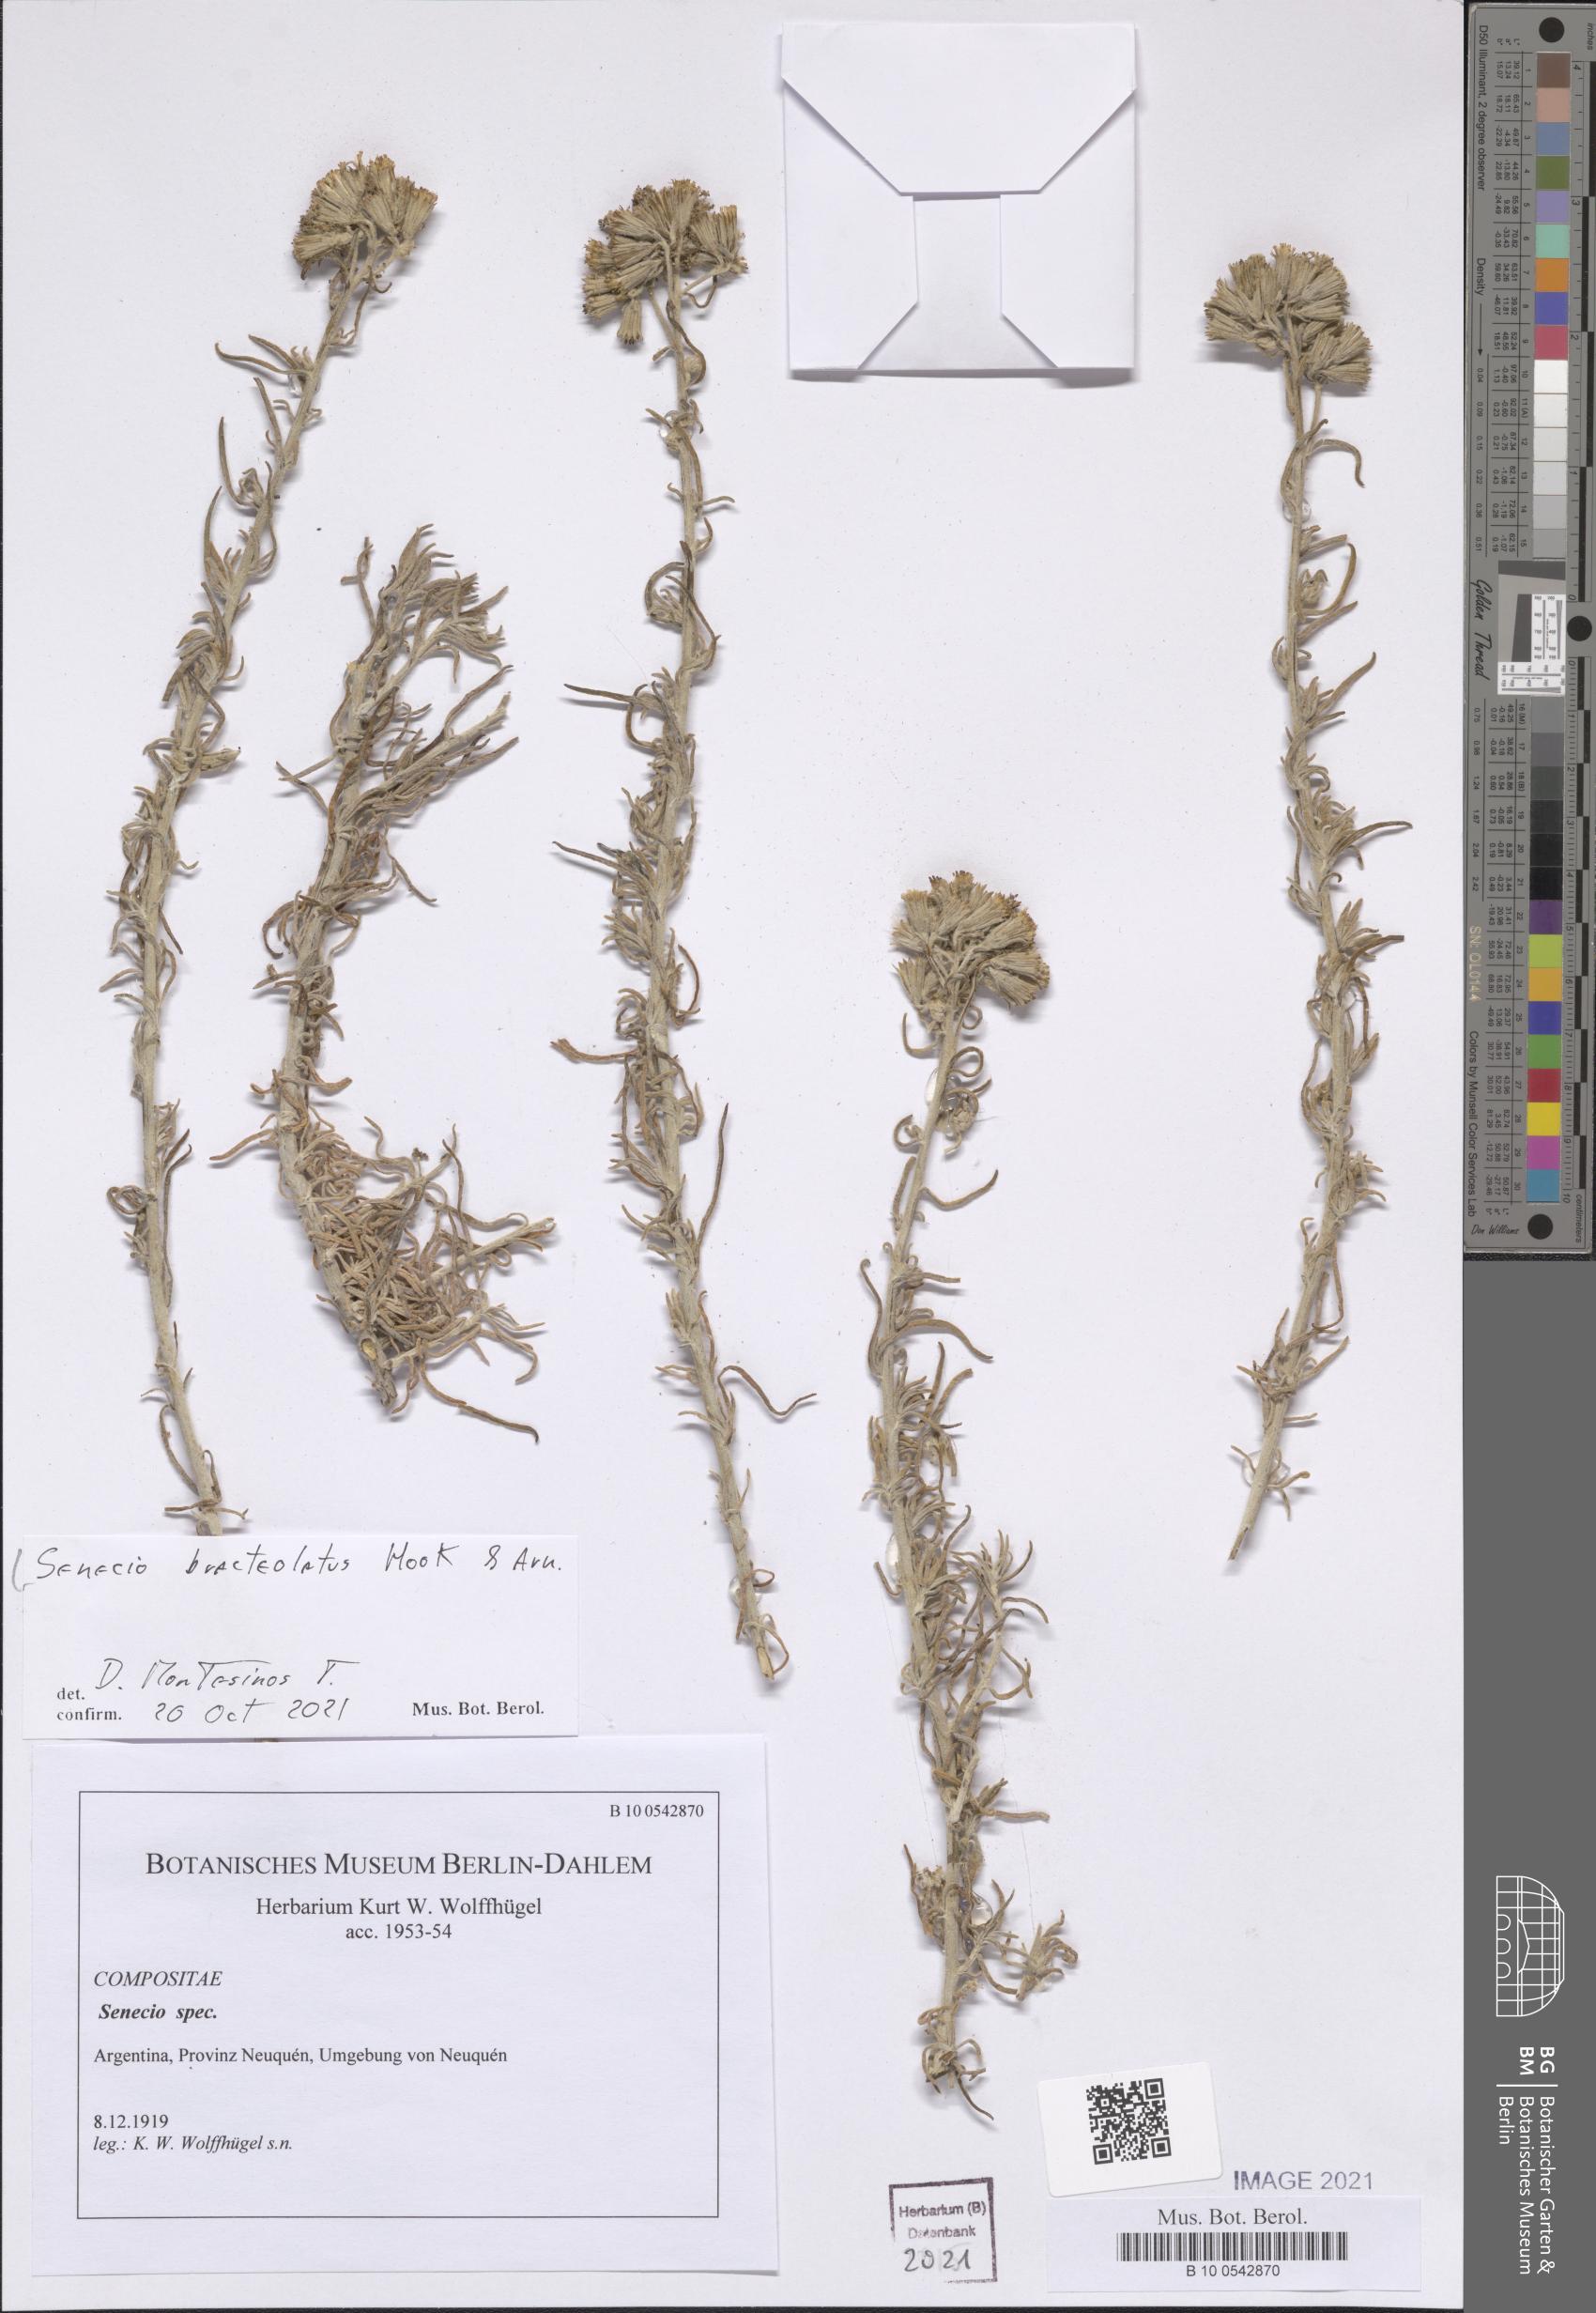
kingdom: Plantae
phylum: Tracheophyta
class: Magnoliopsida
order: Asterales
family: Asteraceae
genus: Senecio
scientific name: Senecio bracteolatus
